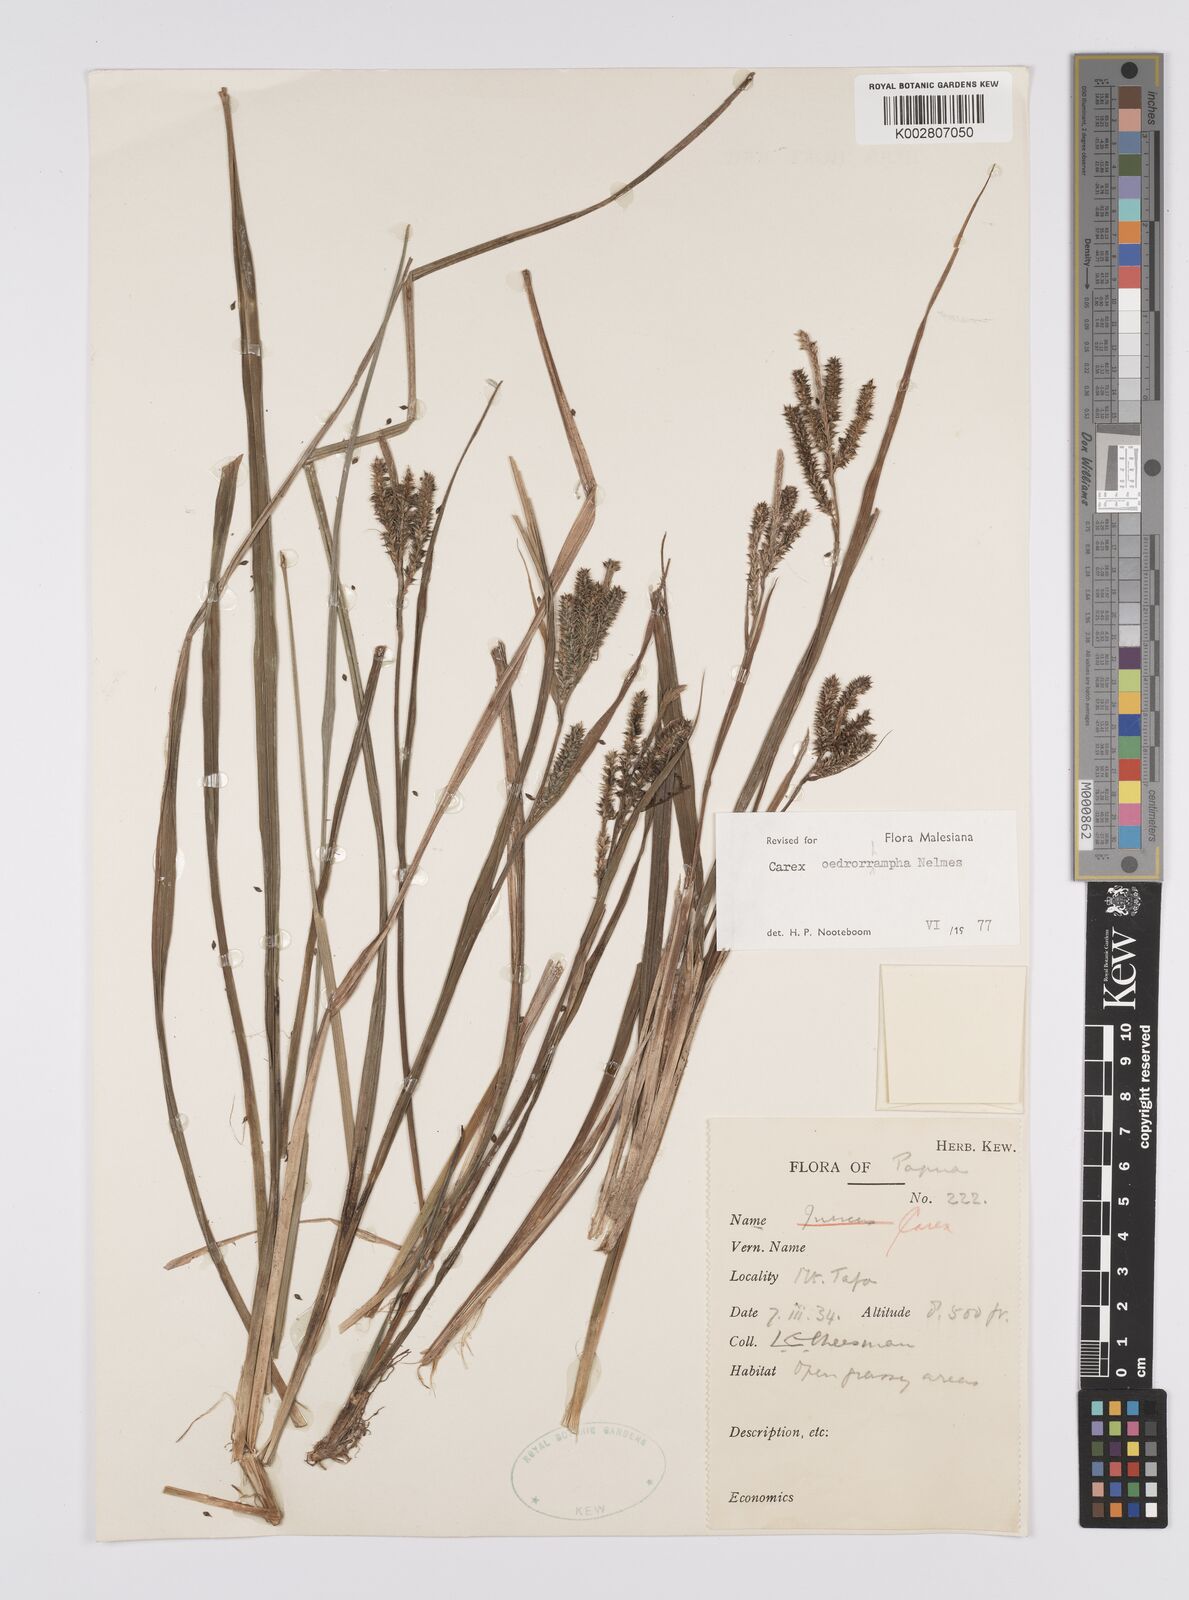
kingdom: Plantae
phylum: Tracheophyta
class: Liliopsida
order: Poales
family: Cyperaceae
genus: Carex
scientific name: Carex tumida
